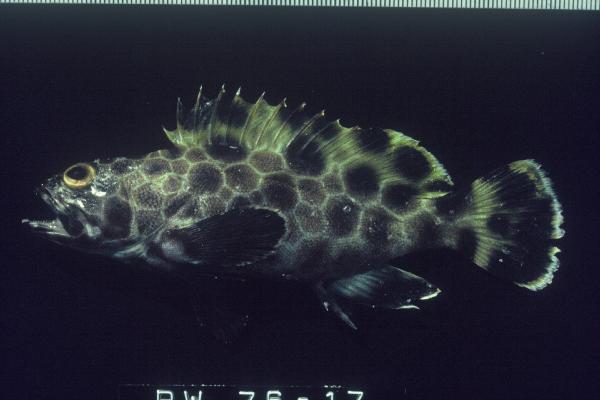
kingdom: Animalia
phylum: Chordata
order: Perciformes
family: Serranidae
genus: Epinephelus
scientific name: Epinephelus macrospilos
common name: Snubnose grouper
